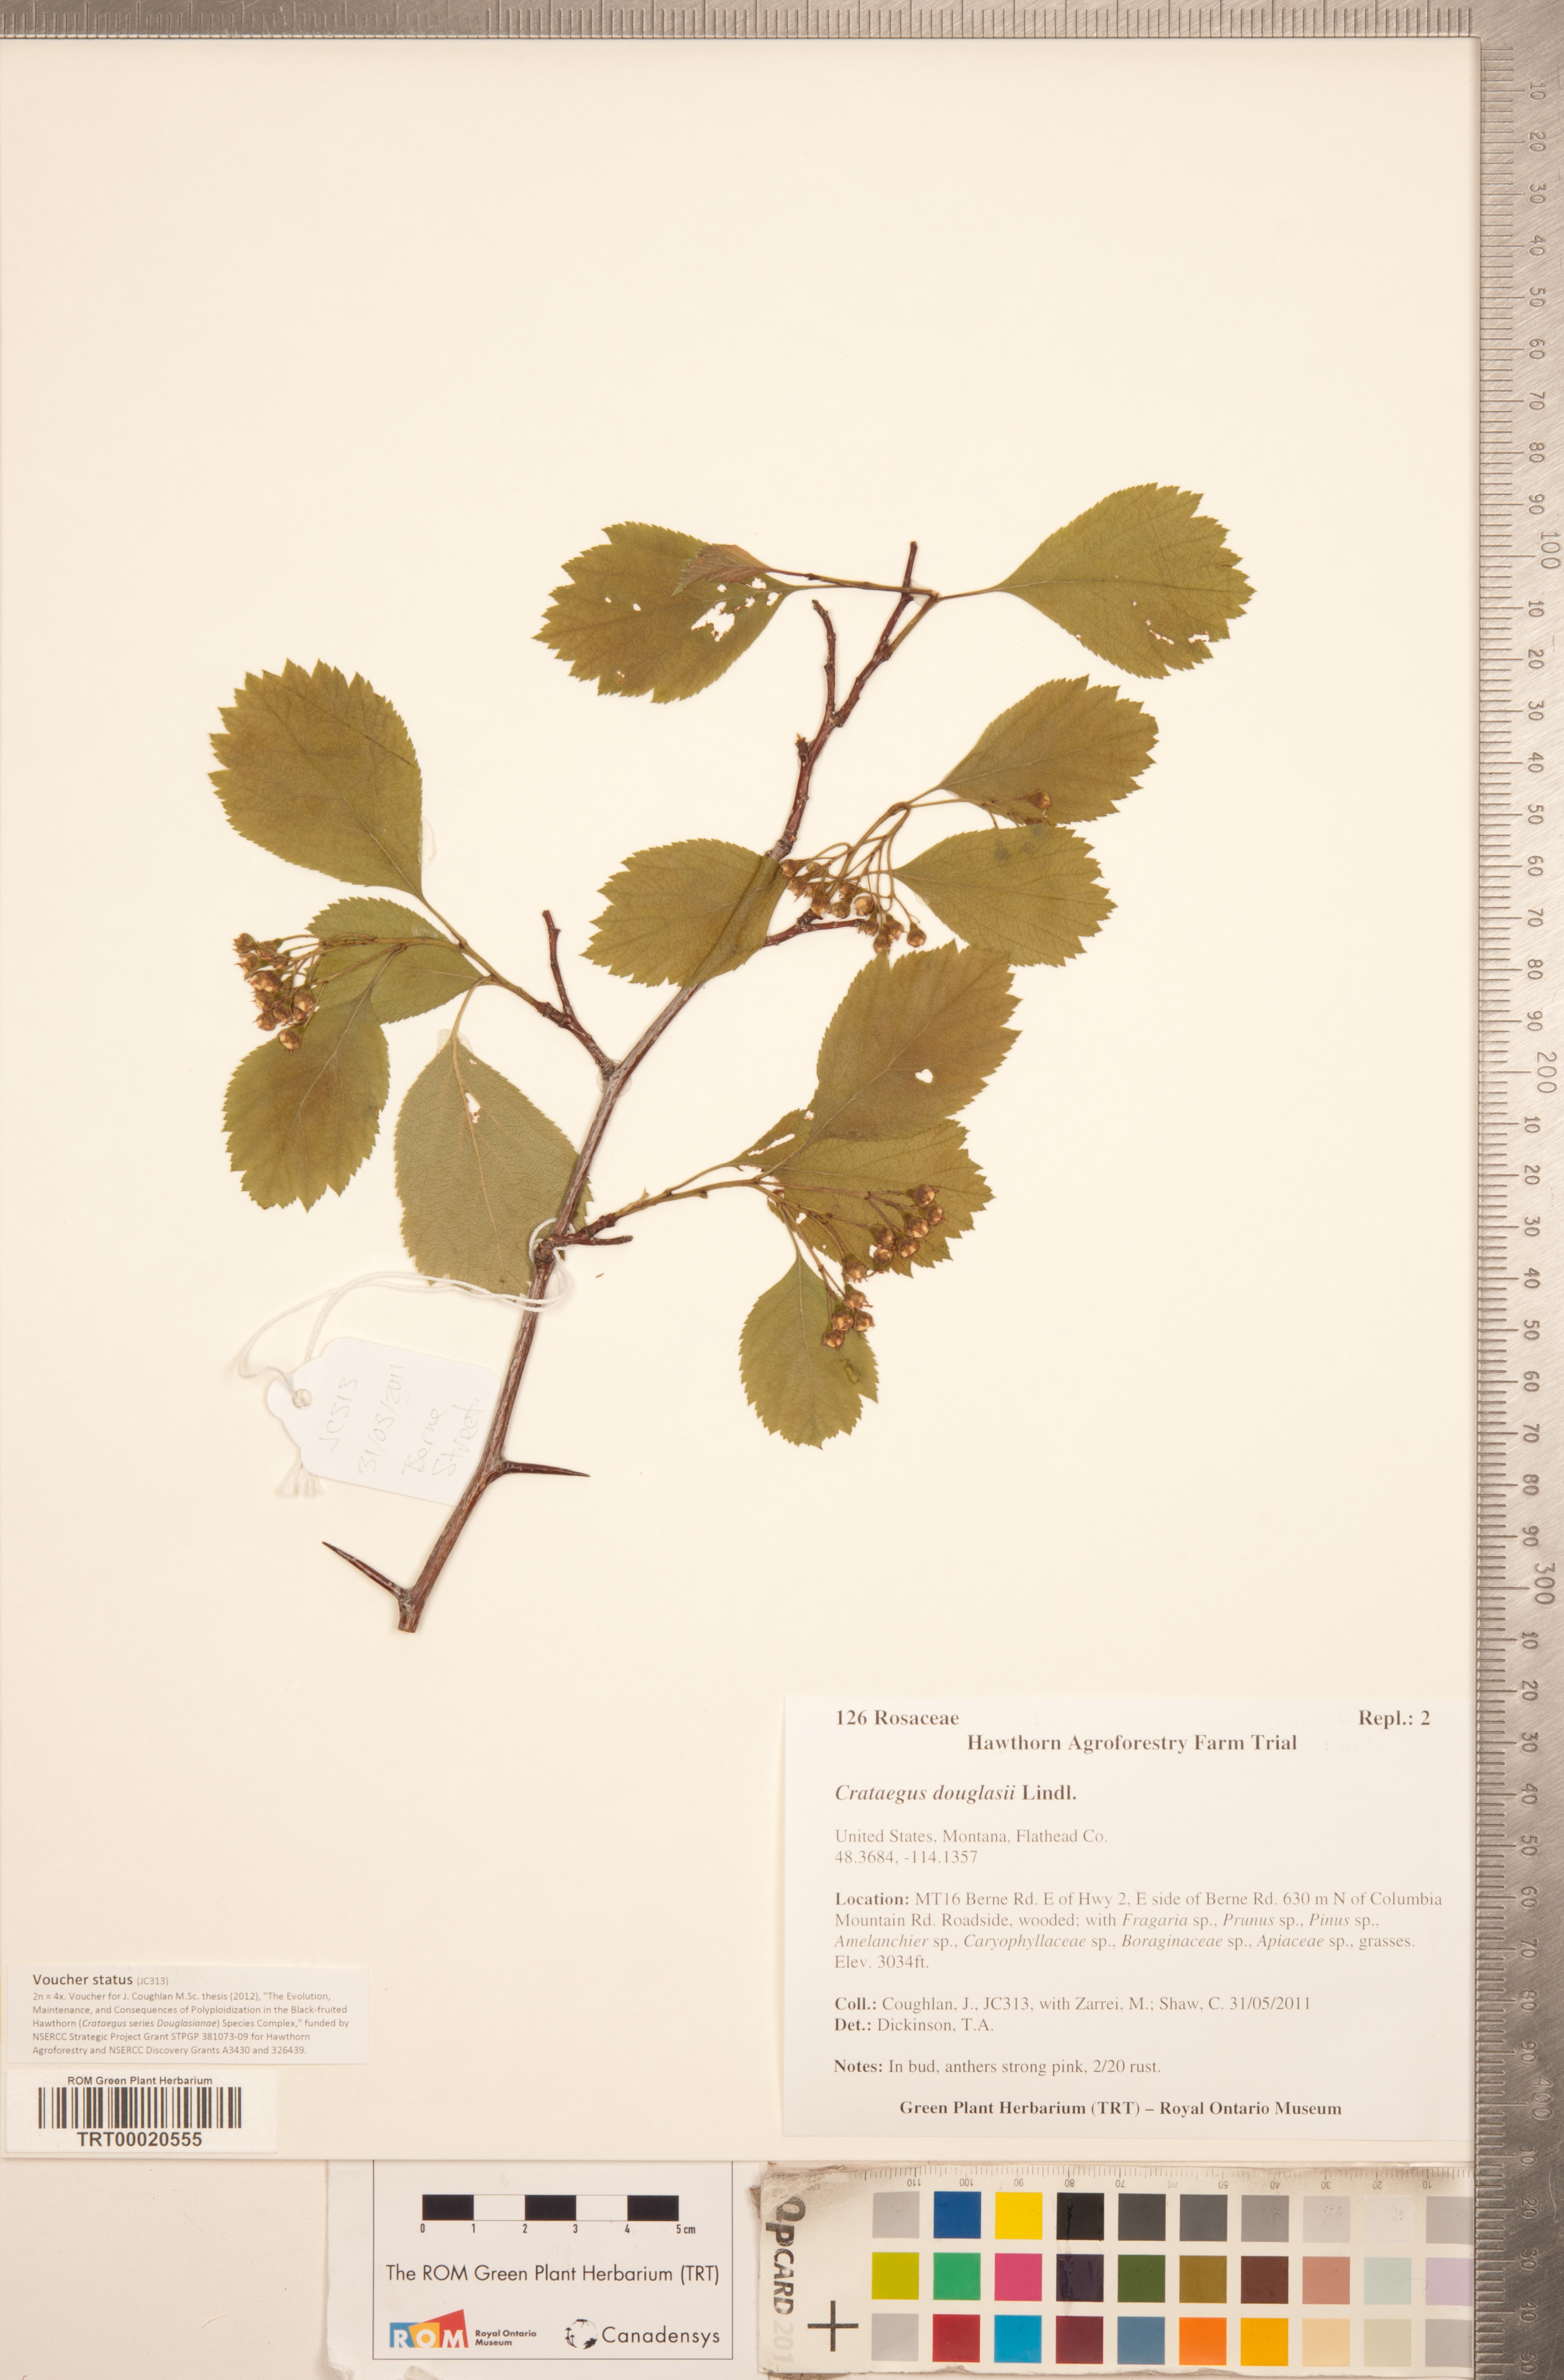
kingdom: Plantae
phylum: Tracheophyta
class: Magnoliopsida
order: Rosales
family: Rosaceae
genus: Crataegus
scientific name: Crataegus douglasii
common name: Black hawthorn
